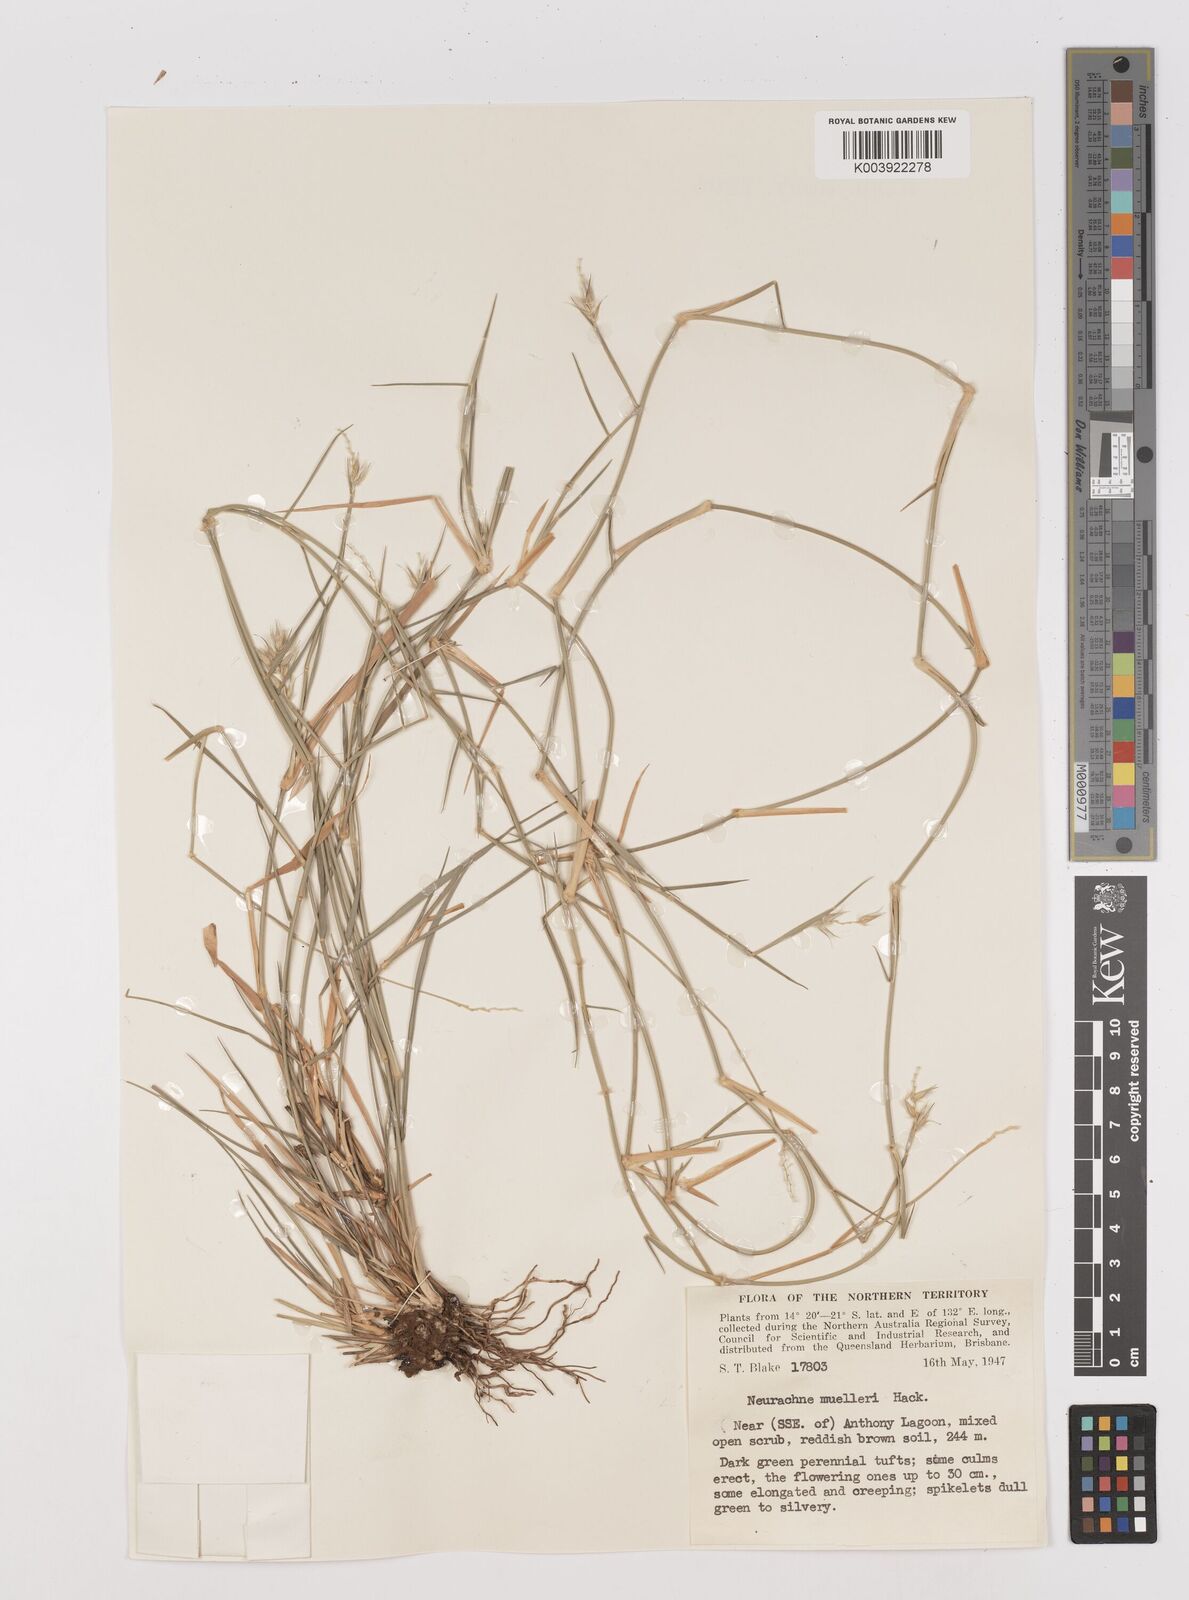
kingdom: Plantae
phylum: Tracheophyta
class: Liliopsida
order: Poales
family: Poaceae
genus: Neurachne
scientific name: Neurachne muelleri
